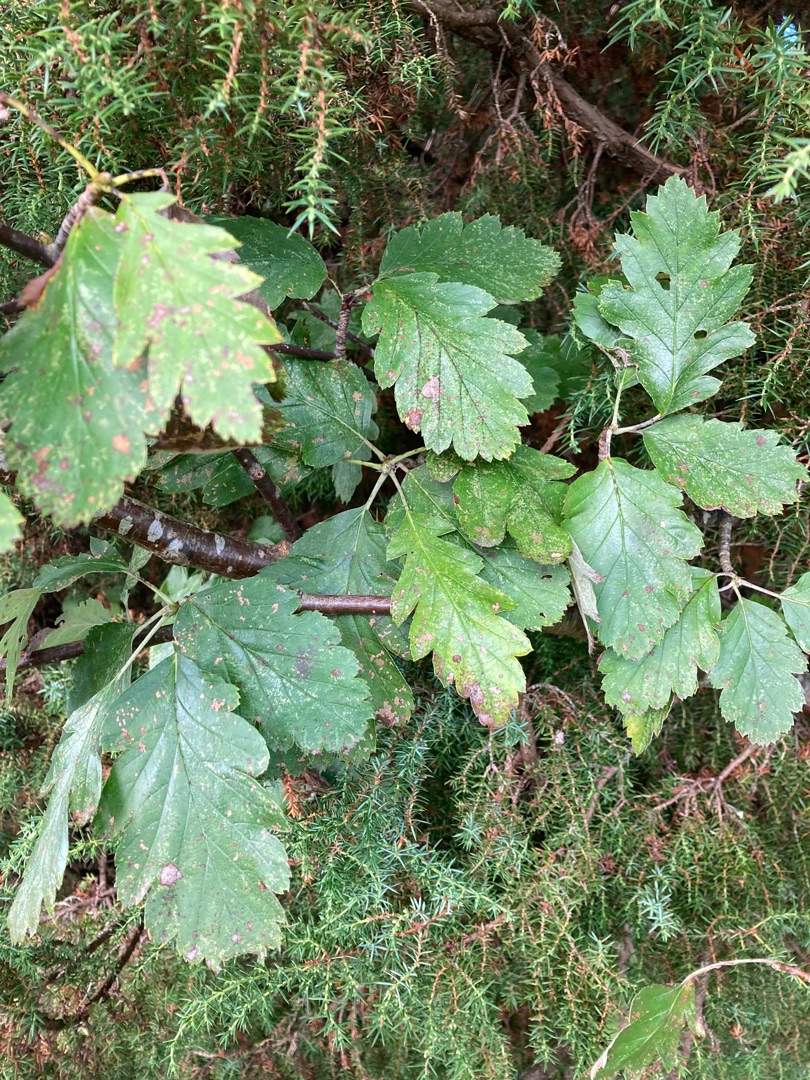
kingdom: Plantae
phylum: Tracheophyta
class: Magnoliopsida
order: Rosales
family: Rosaceae
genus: Scandosorbus
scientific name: Scandosorbus intermedia
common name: Selje-røn
